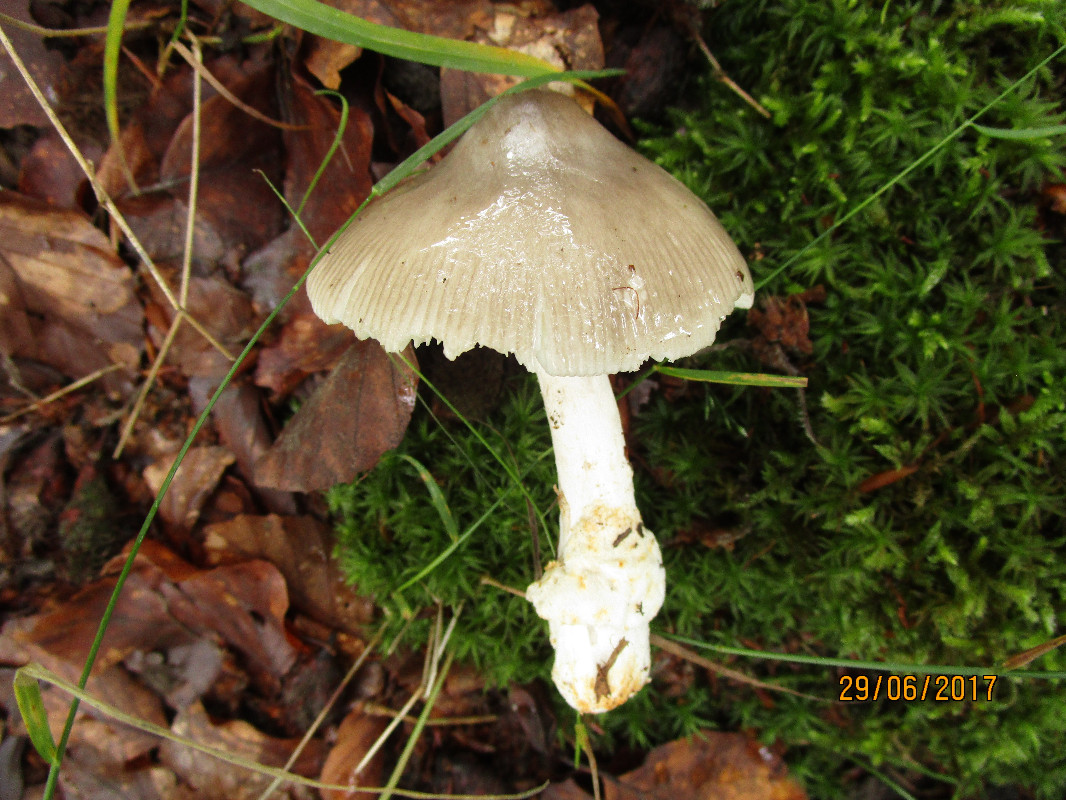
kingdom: Fungi
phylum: Basidiomycota
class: Agaricomycetes
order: Agaricales
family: Amanitaceae
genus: Amanita
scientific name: Amanita
